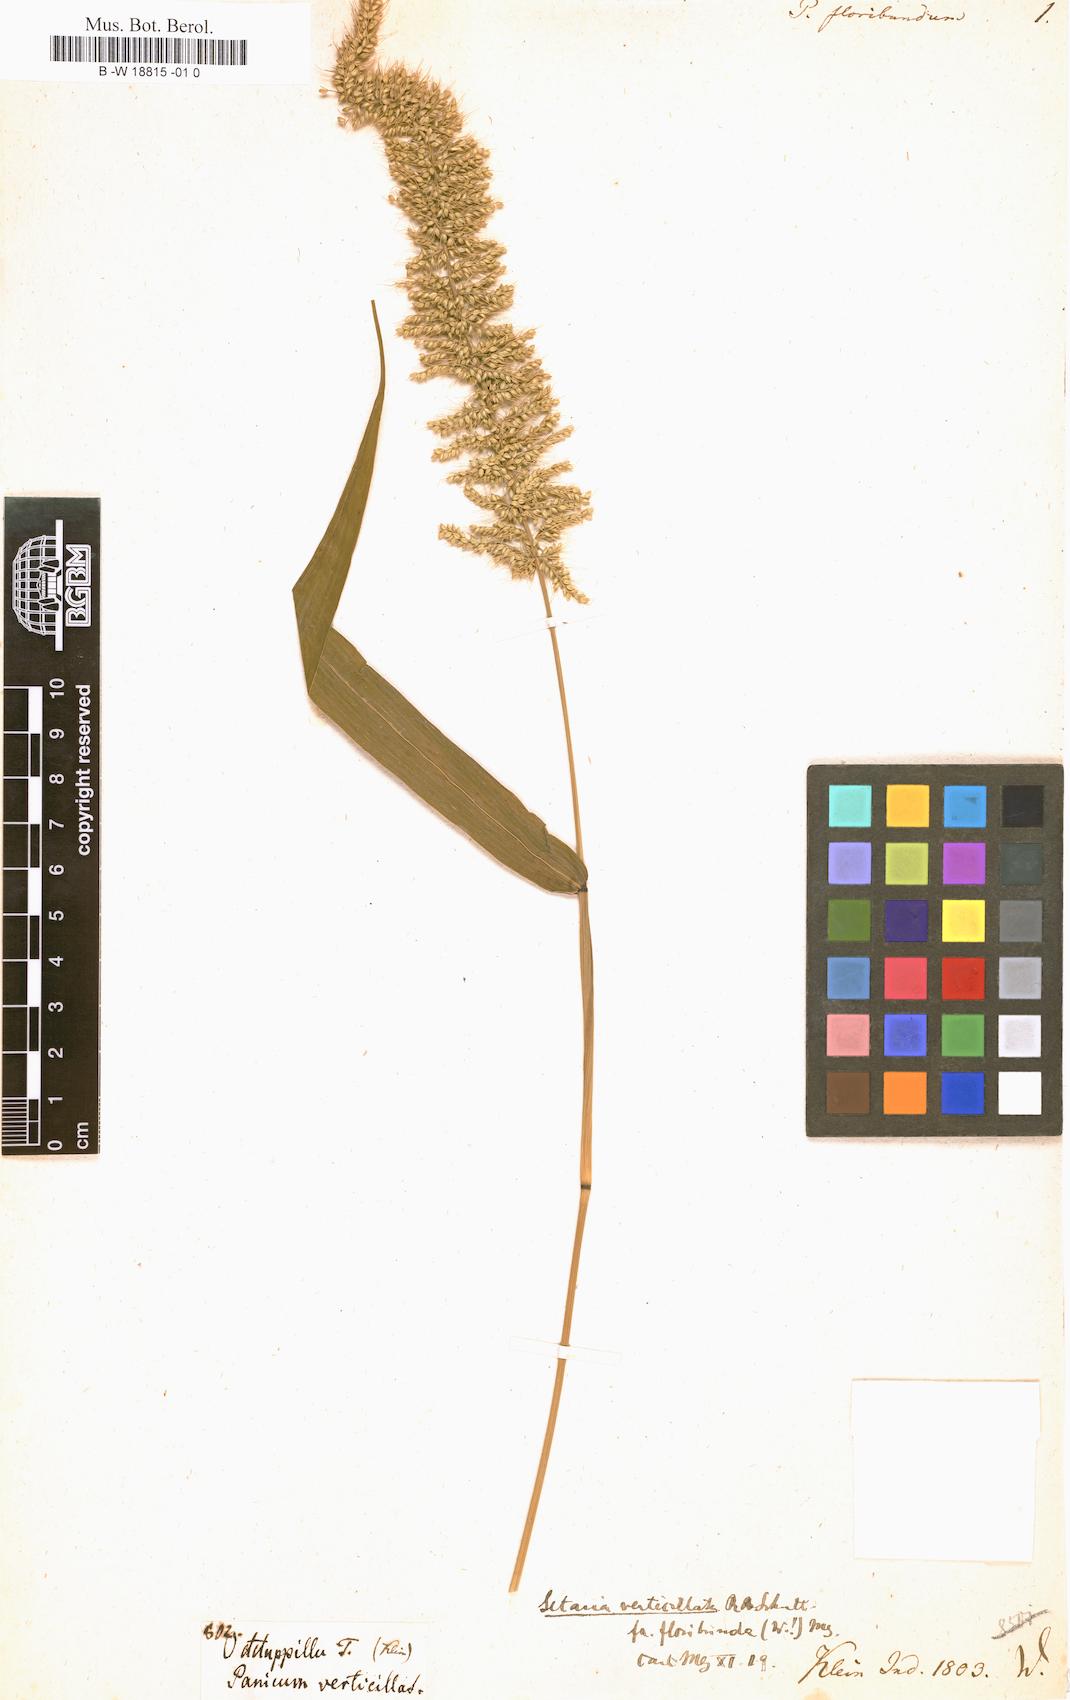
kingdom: Plantae
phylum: Tracheophyta
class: Liliopsida
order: Poales
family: Poaceae
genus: Setaria
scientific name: Setaria verticillata
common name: Hooked bristlegrass
